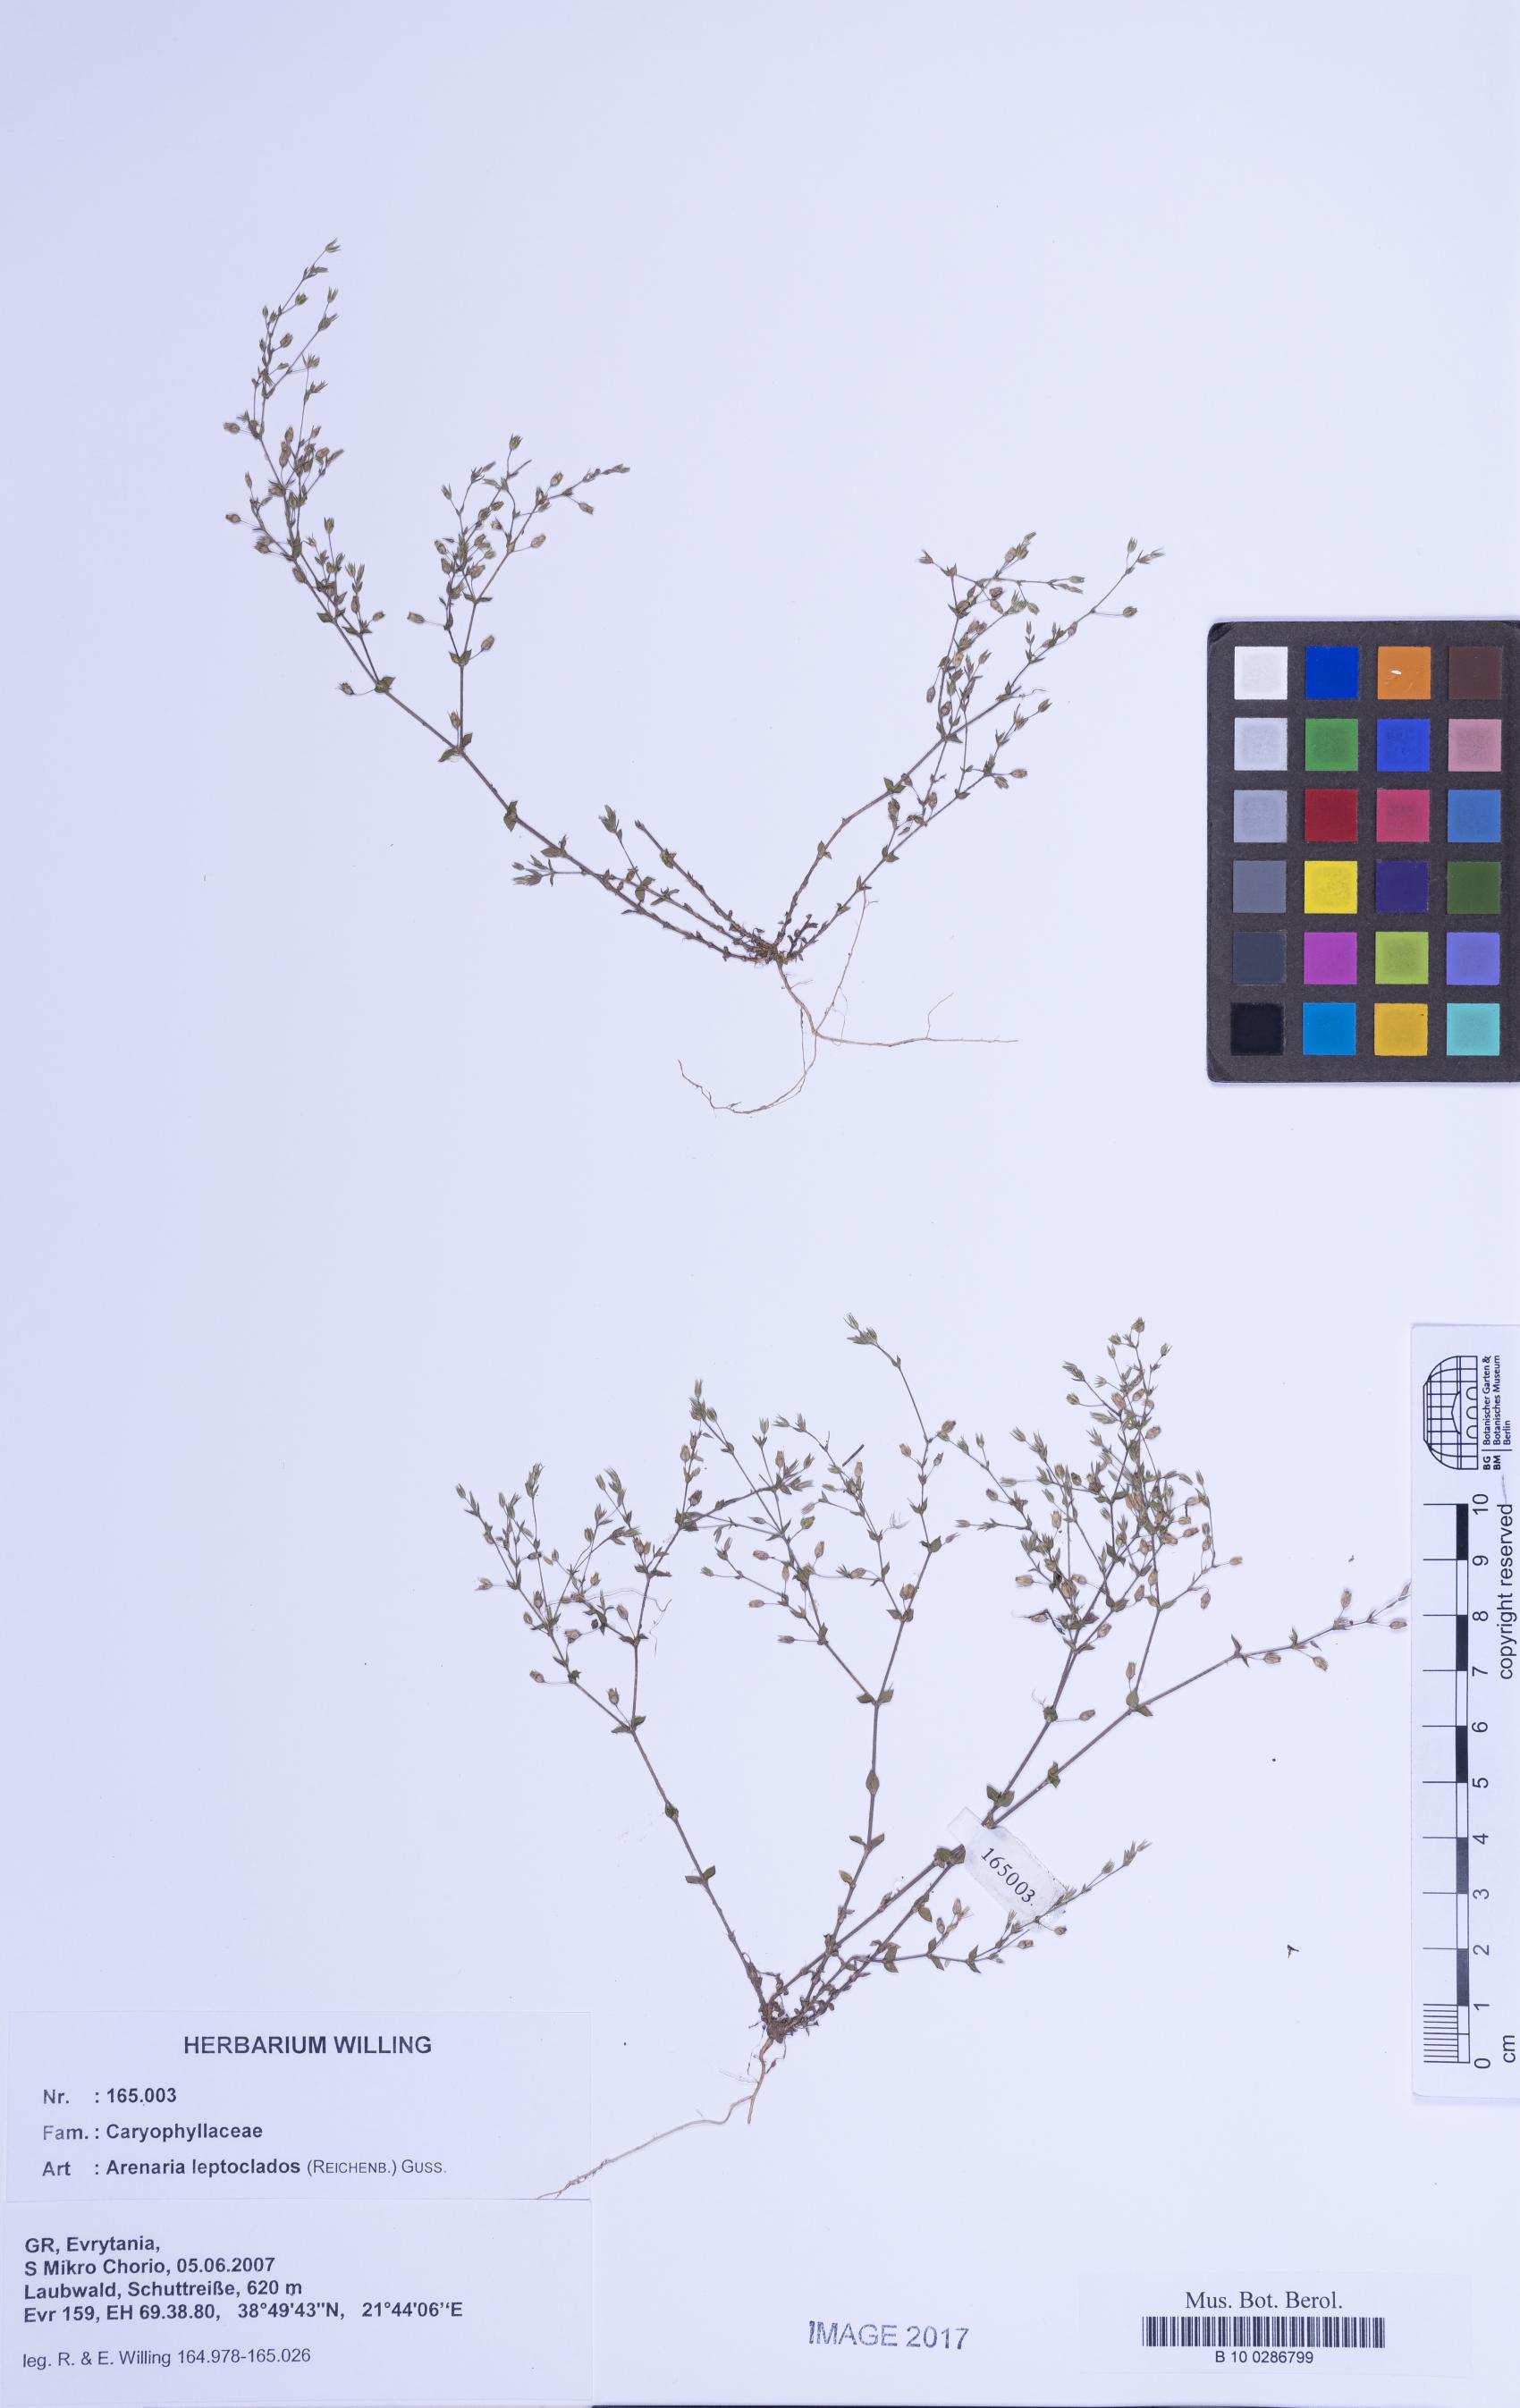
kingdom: Plantae
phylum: Tracheophyta
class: Magnoliopsida
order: Caryophyllales
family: Caryophyllaceae
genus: Arenaria
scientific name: Arenaria leptoclados
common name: Thyme-leaved sandwort
